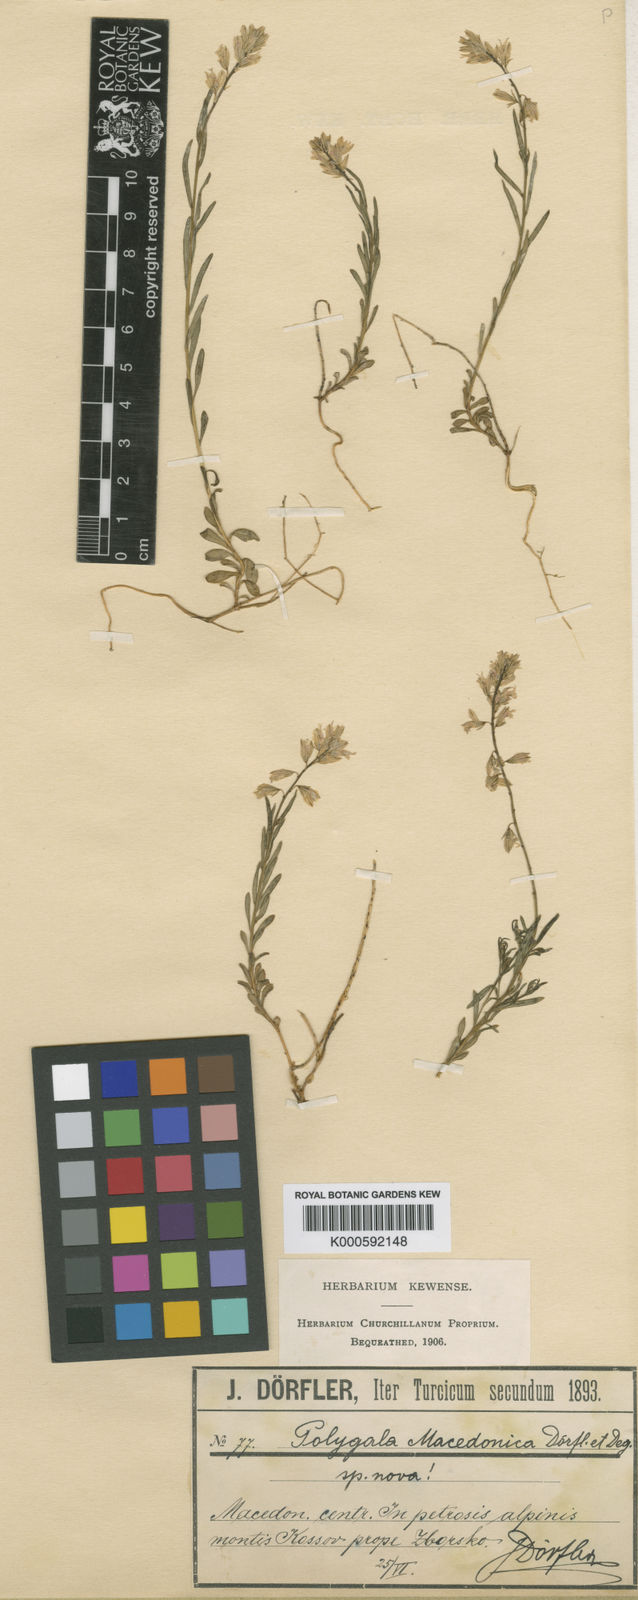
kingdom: Plantae
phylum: Tracheophyta
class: Magnoliopsida
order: Fabales
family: Polygalaceae
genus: Polygala
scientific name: Polygala
